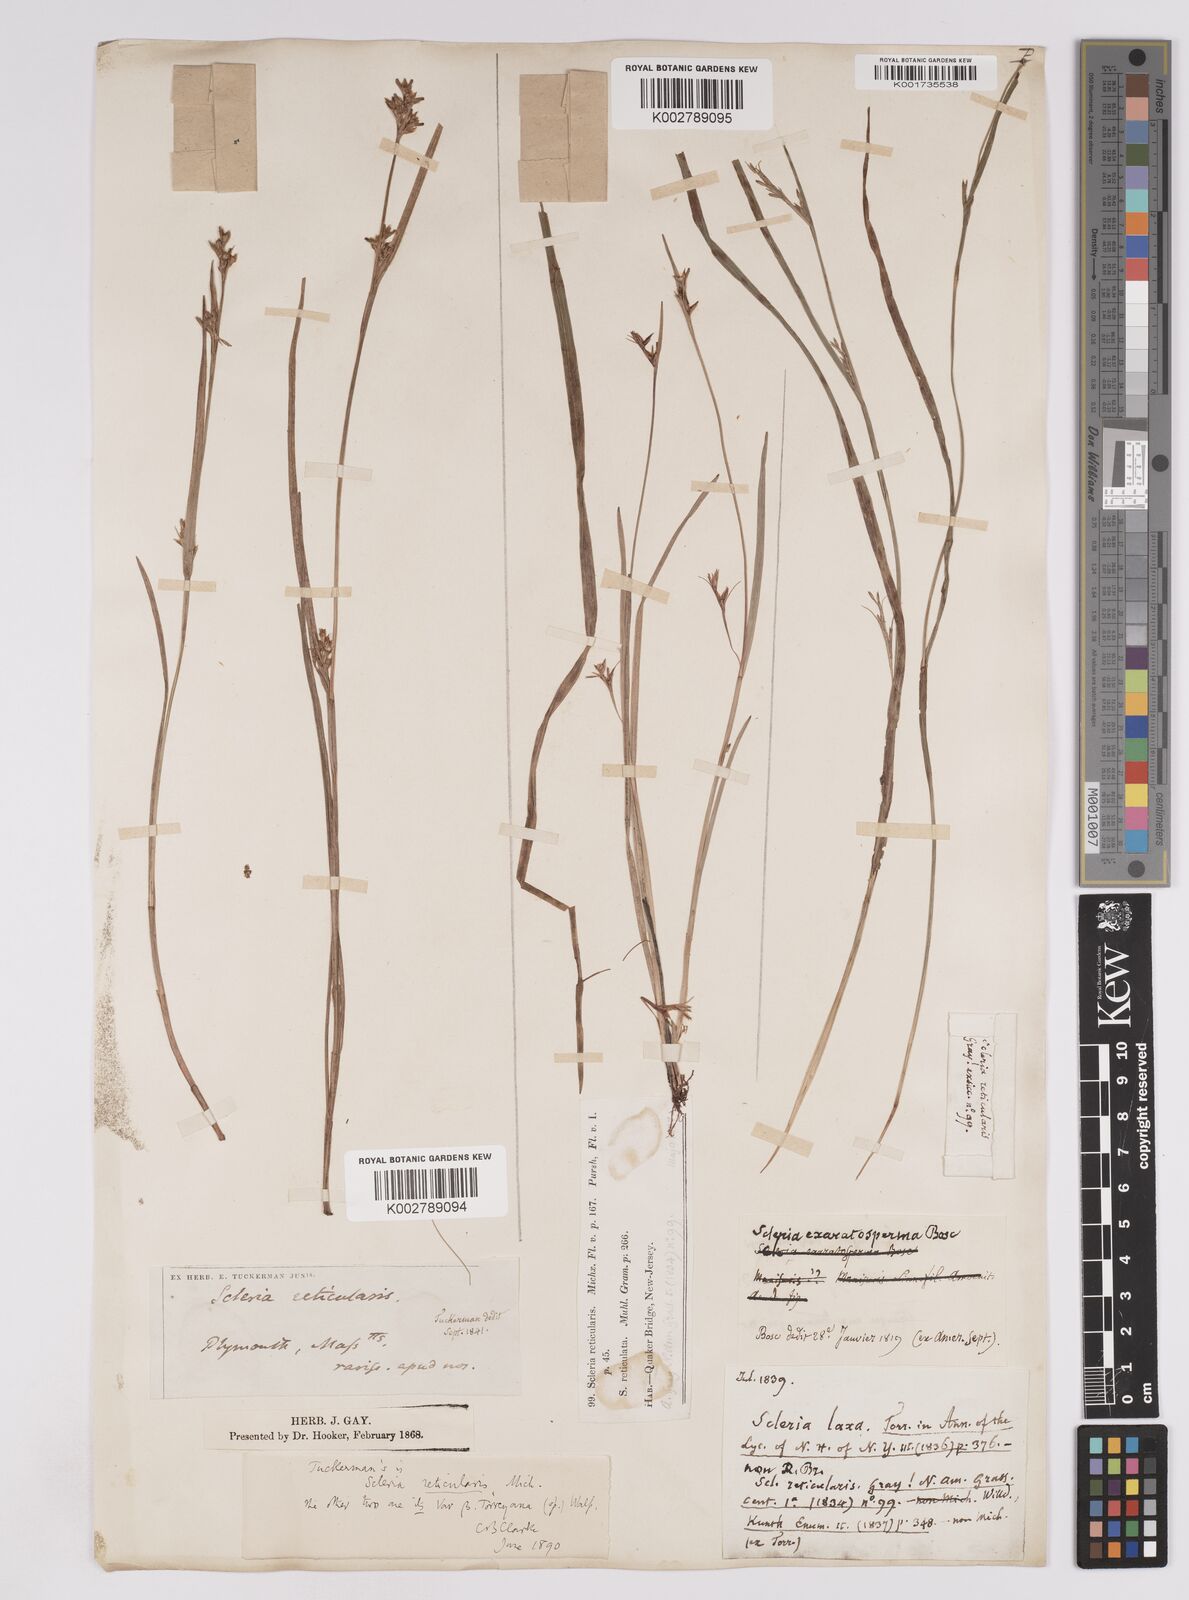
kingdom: Plantae
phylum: Tracheophyta
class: Liliopsida
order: Poales
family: Cyperaceae
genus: Scleria
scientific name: Scleria muehlenbergii
